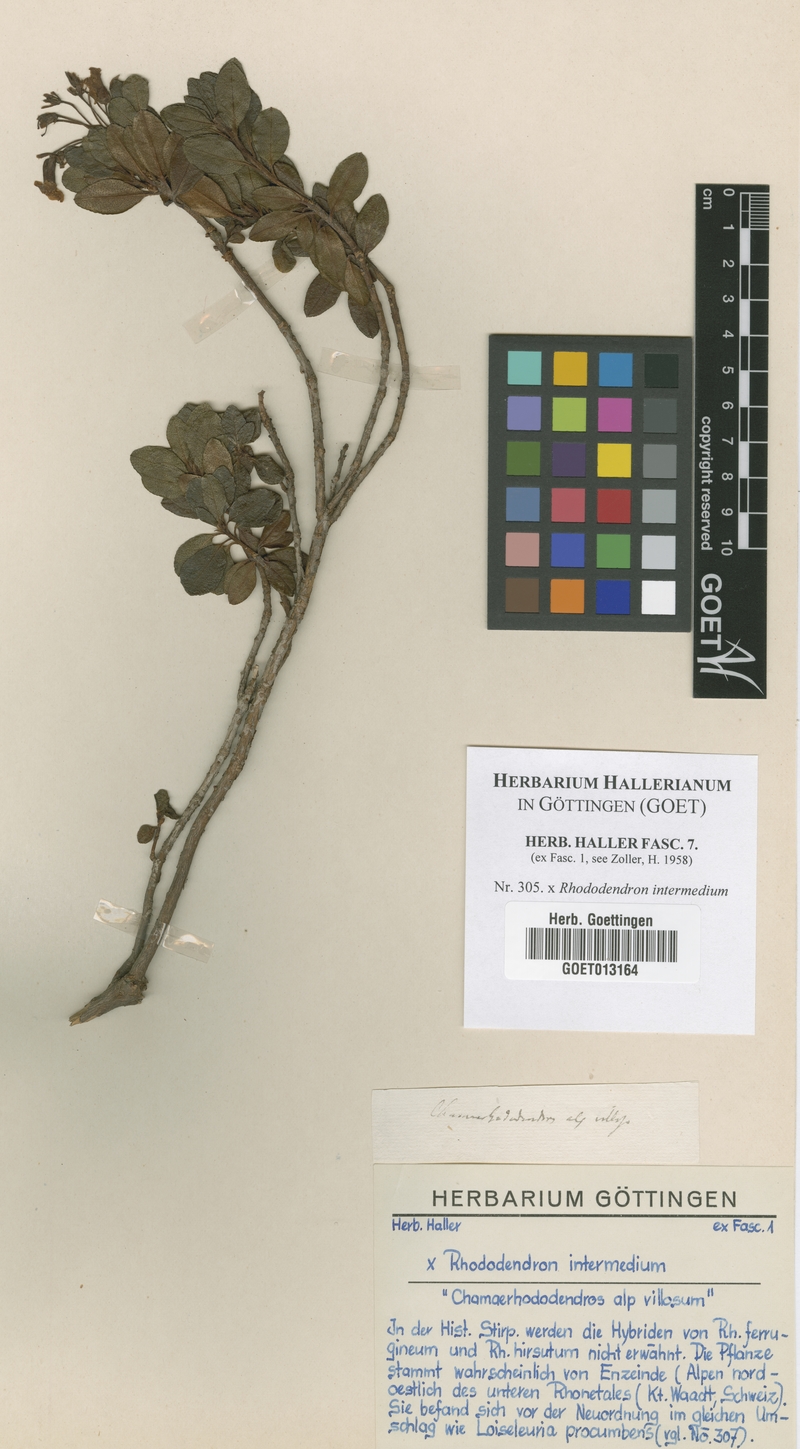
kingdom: Plantae
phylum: Tracheophyta
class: Magnoliopsida
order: Ericales
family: Ericaceae
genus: Rhododendron
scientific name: Rhododendron intermedium
